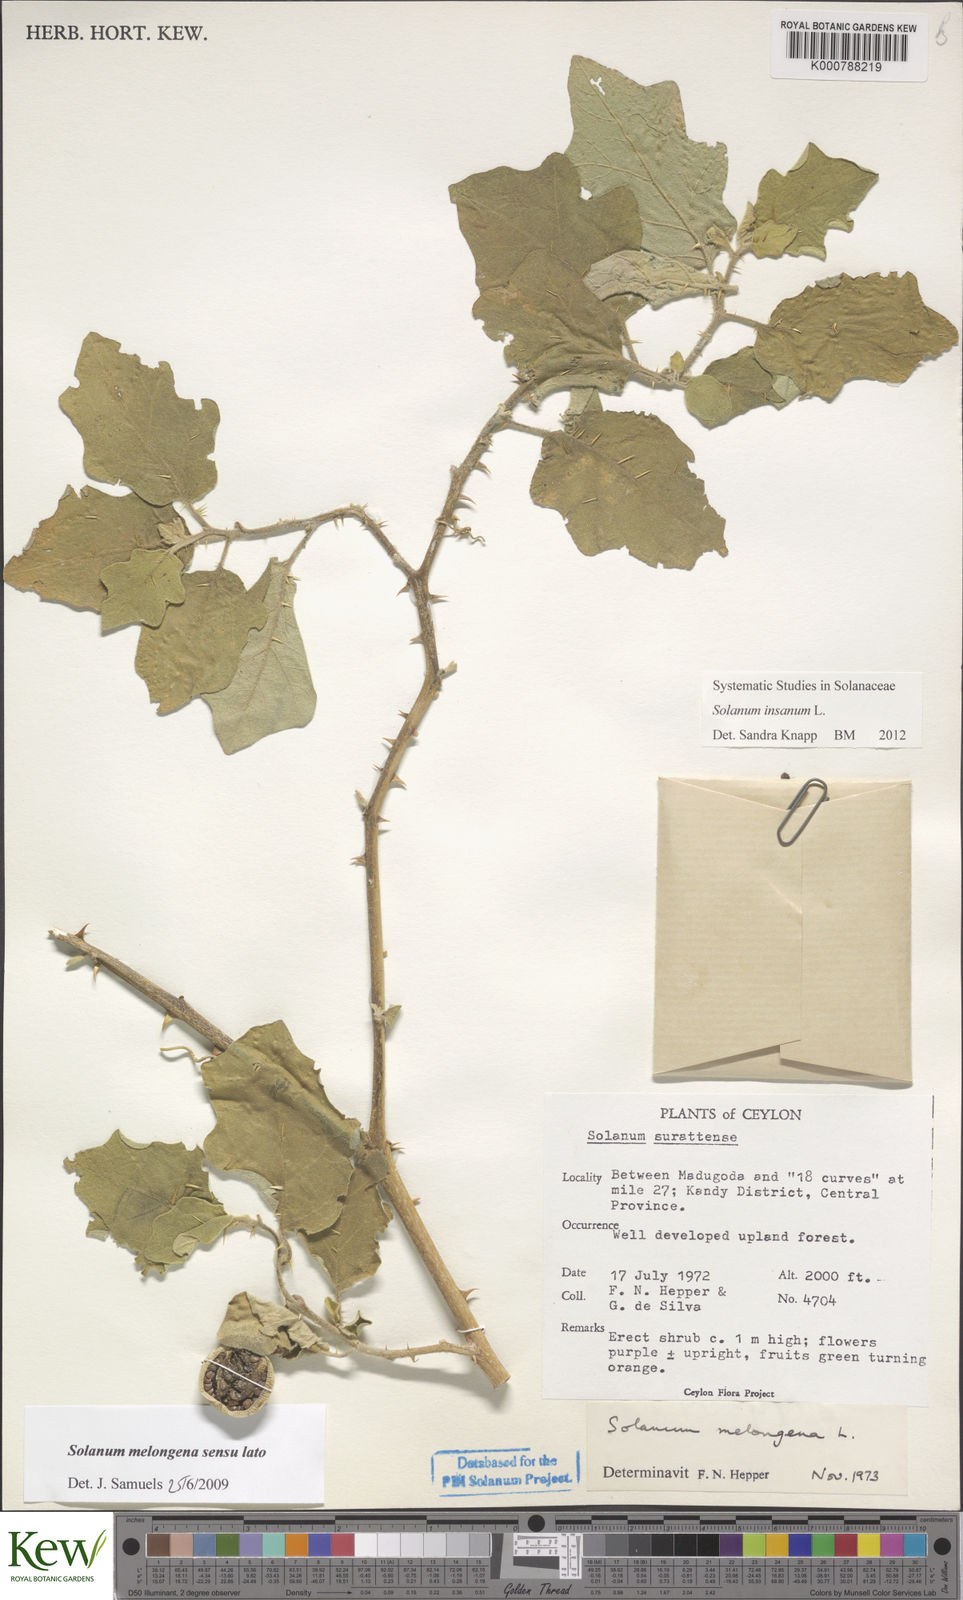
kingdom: Plantae
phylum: Tracheophyta
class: Magnoliopsida
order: Solanales
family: Solanaceae
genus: Solanum
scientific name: Solanum insanum
